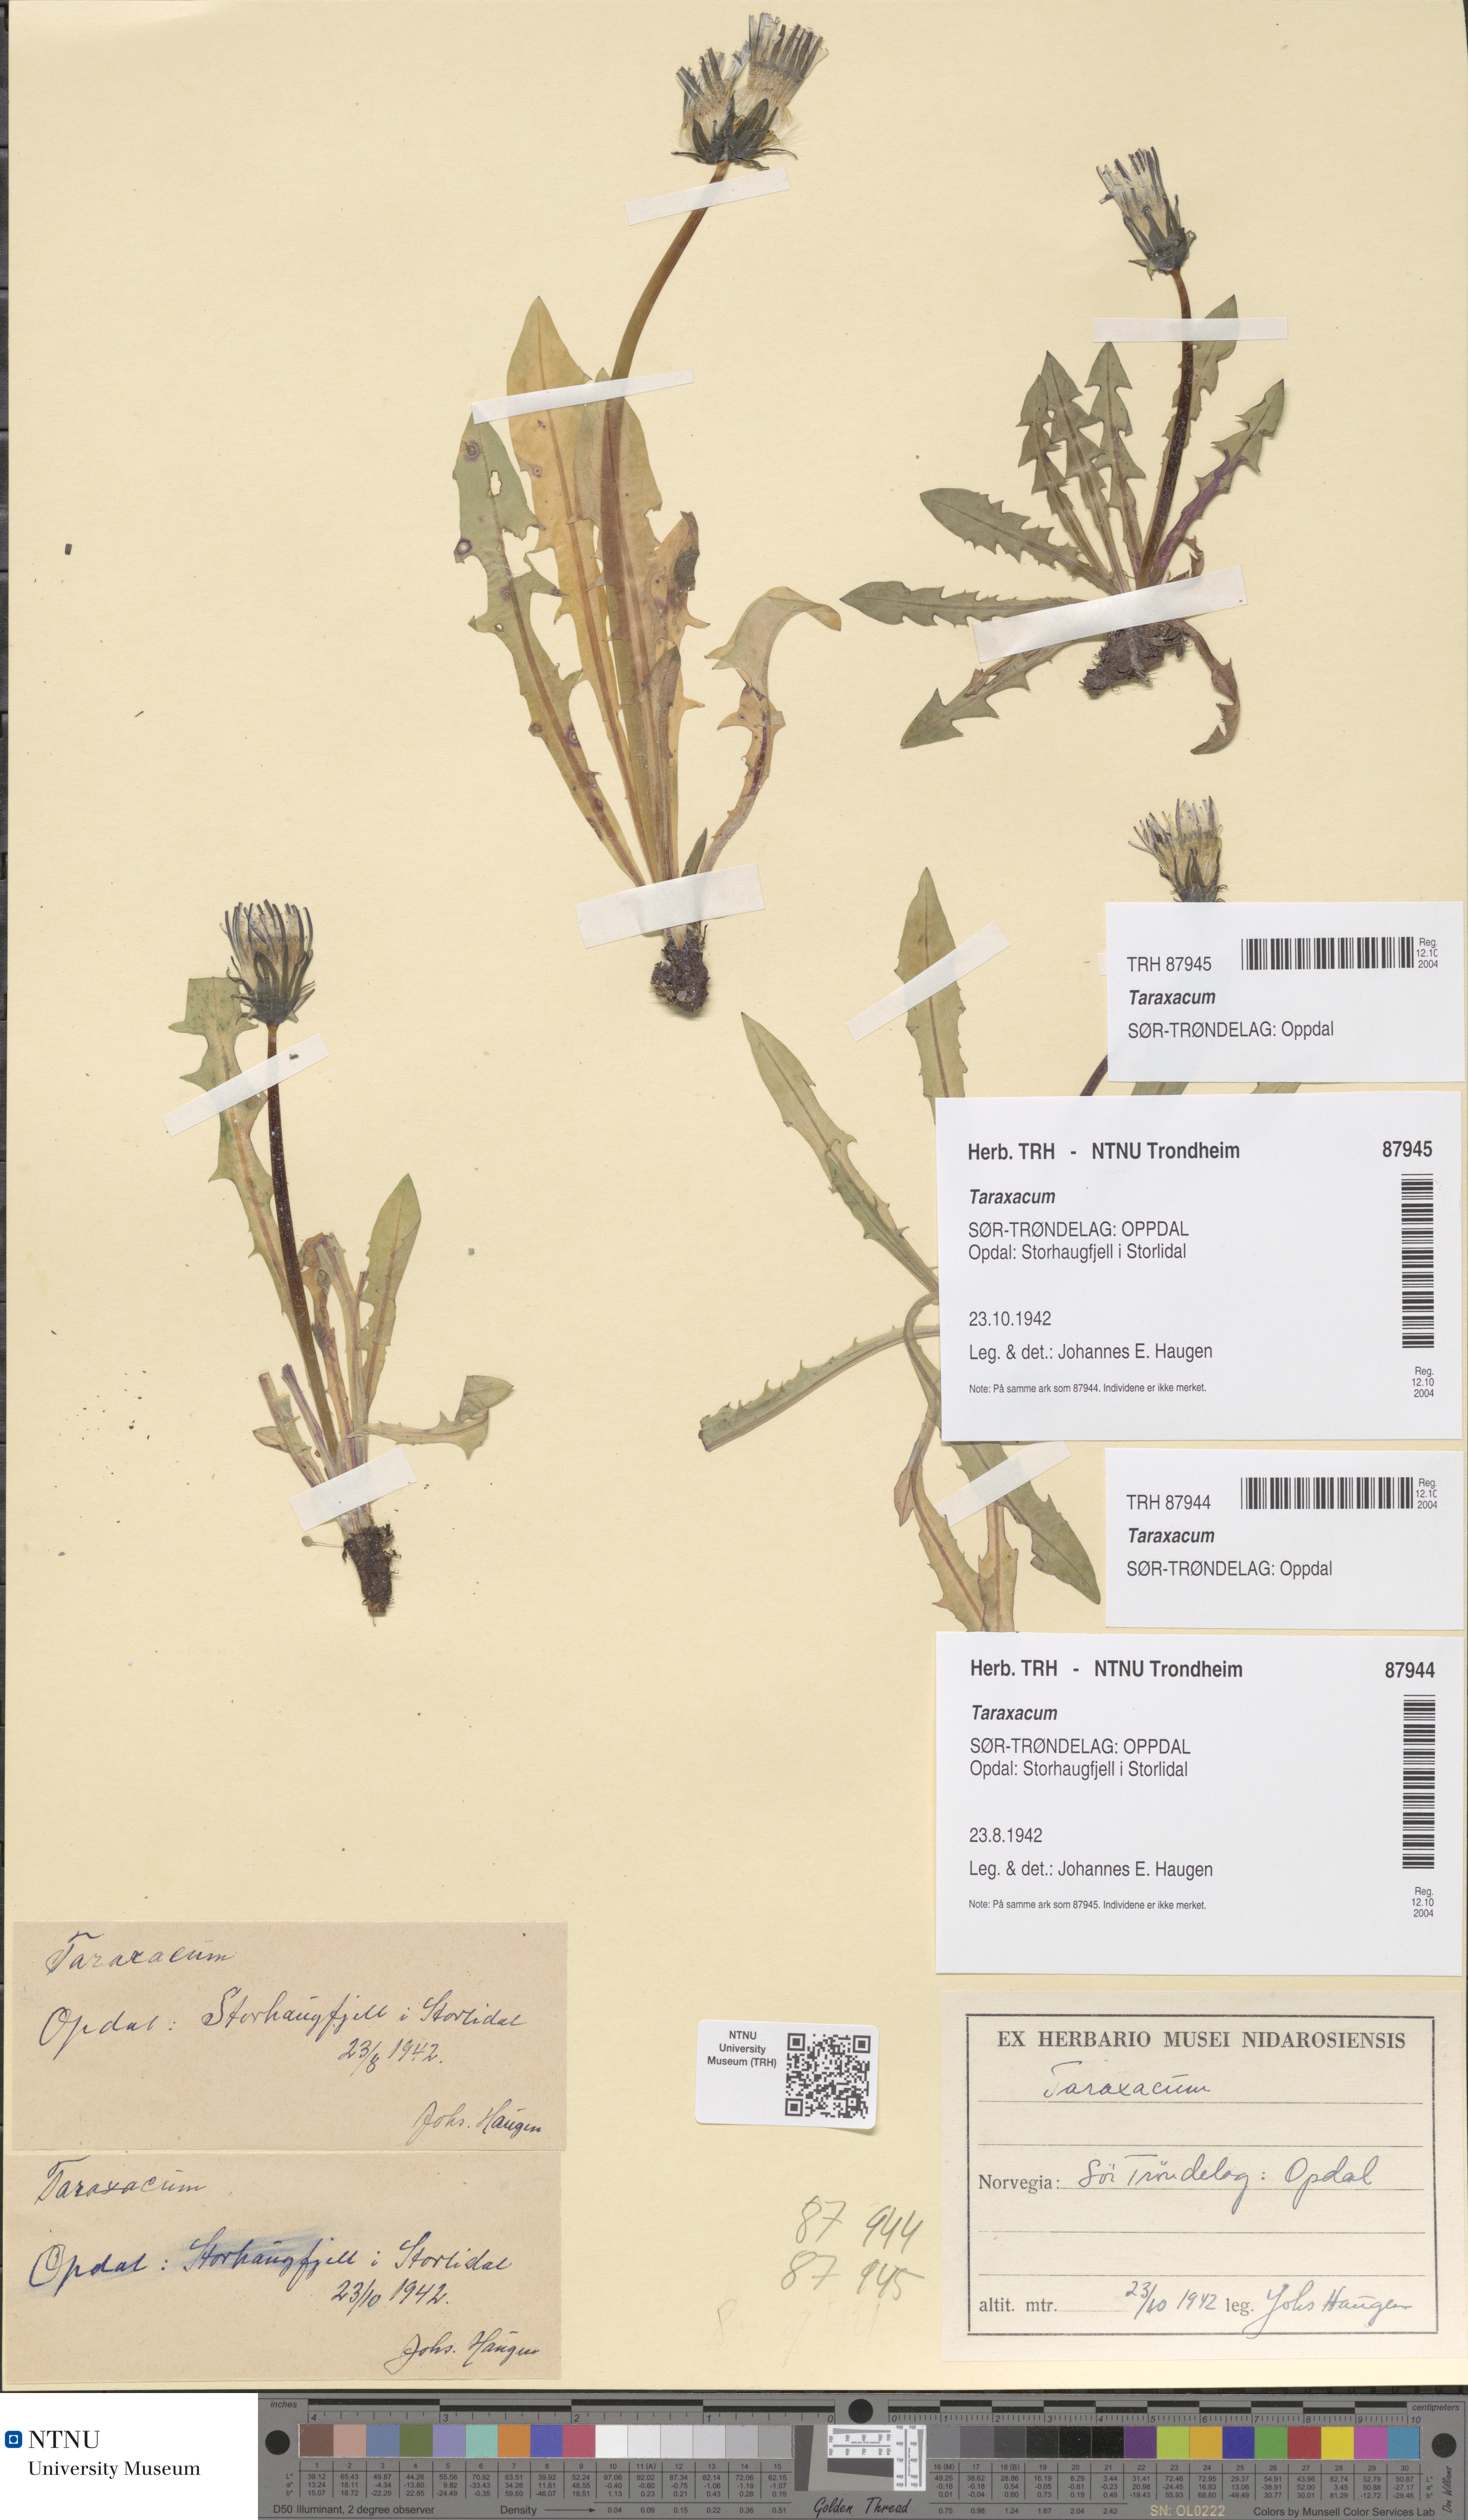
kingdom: Plantae
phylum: Tracheophyta
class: Magnoliopsida
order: Asterales
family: Asteraceae
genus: Taraxacum
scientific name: Taraxacum
